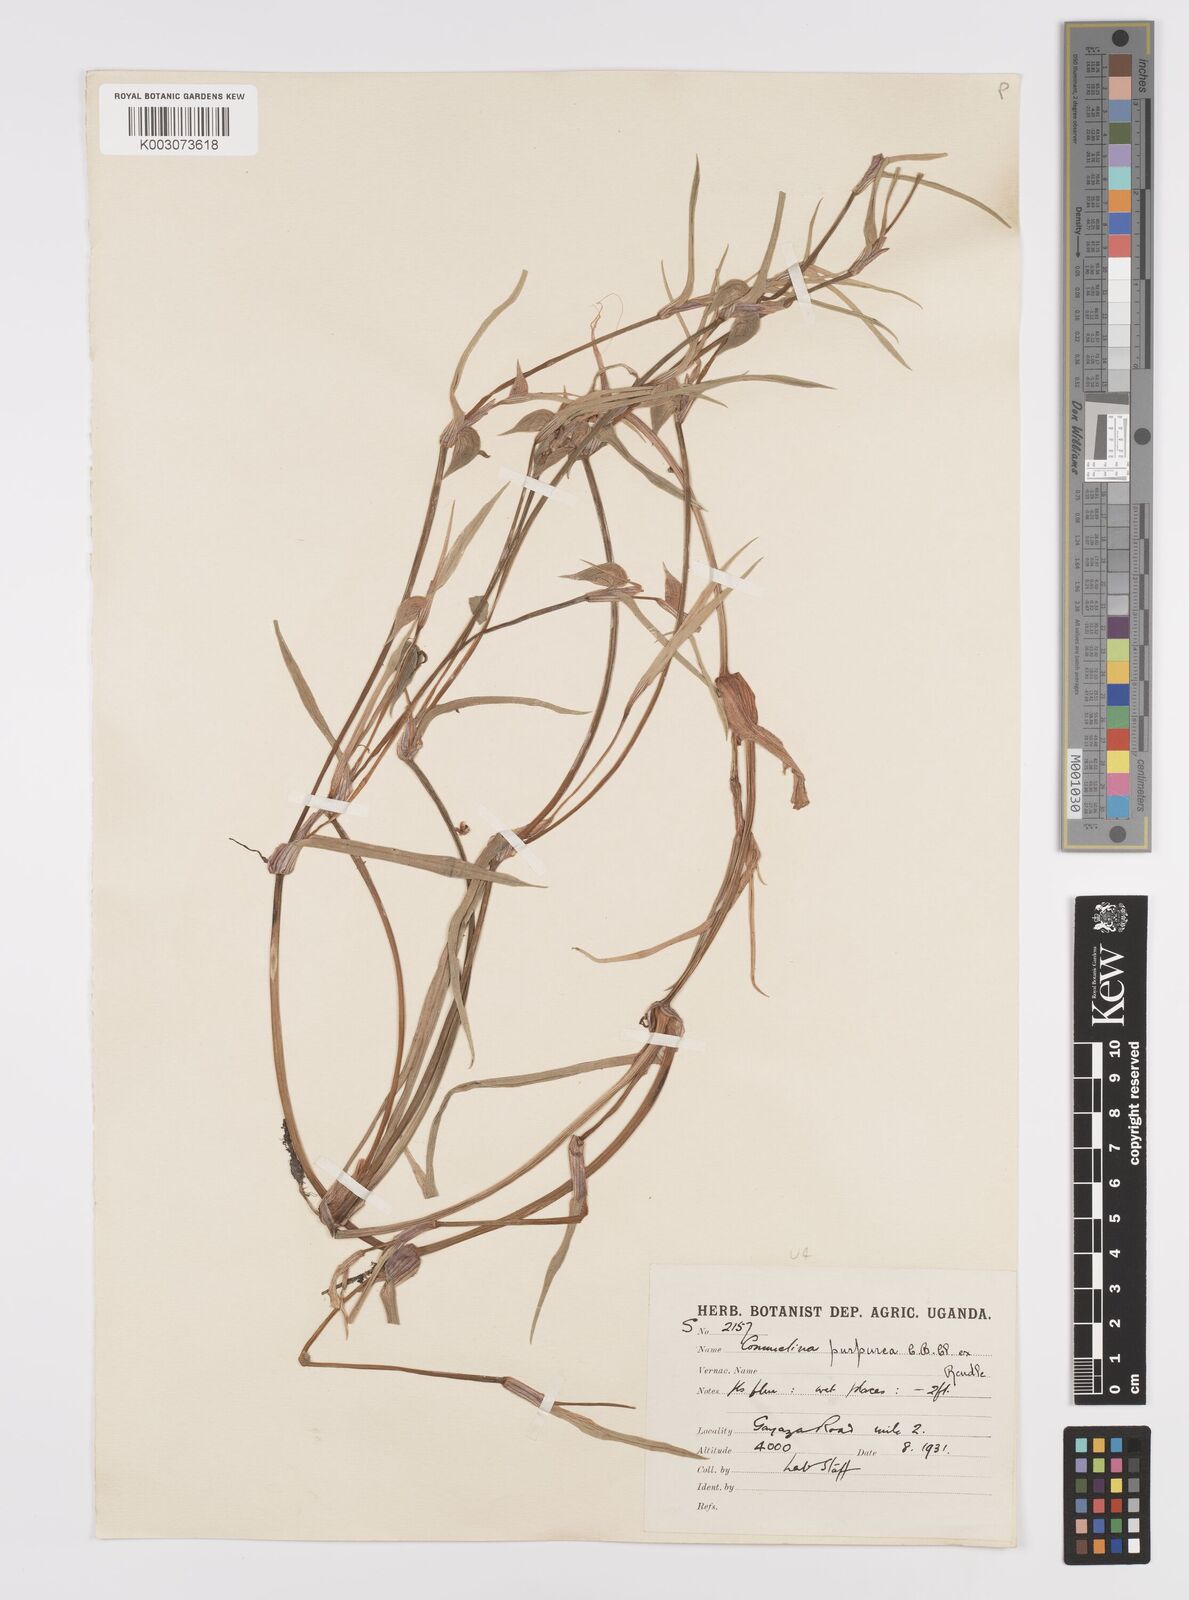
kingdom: Plantae
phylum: Tracheophyta
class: Liliopsida
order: Commelinales
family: Commelinaceae
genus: Commelina
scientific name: Commelina purpurea
